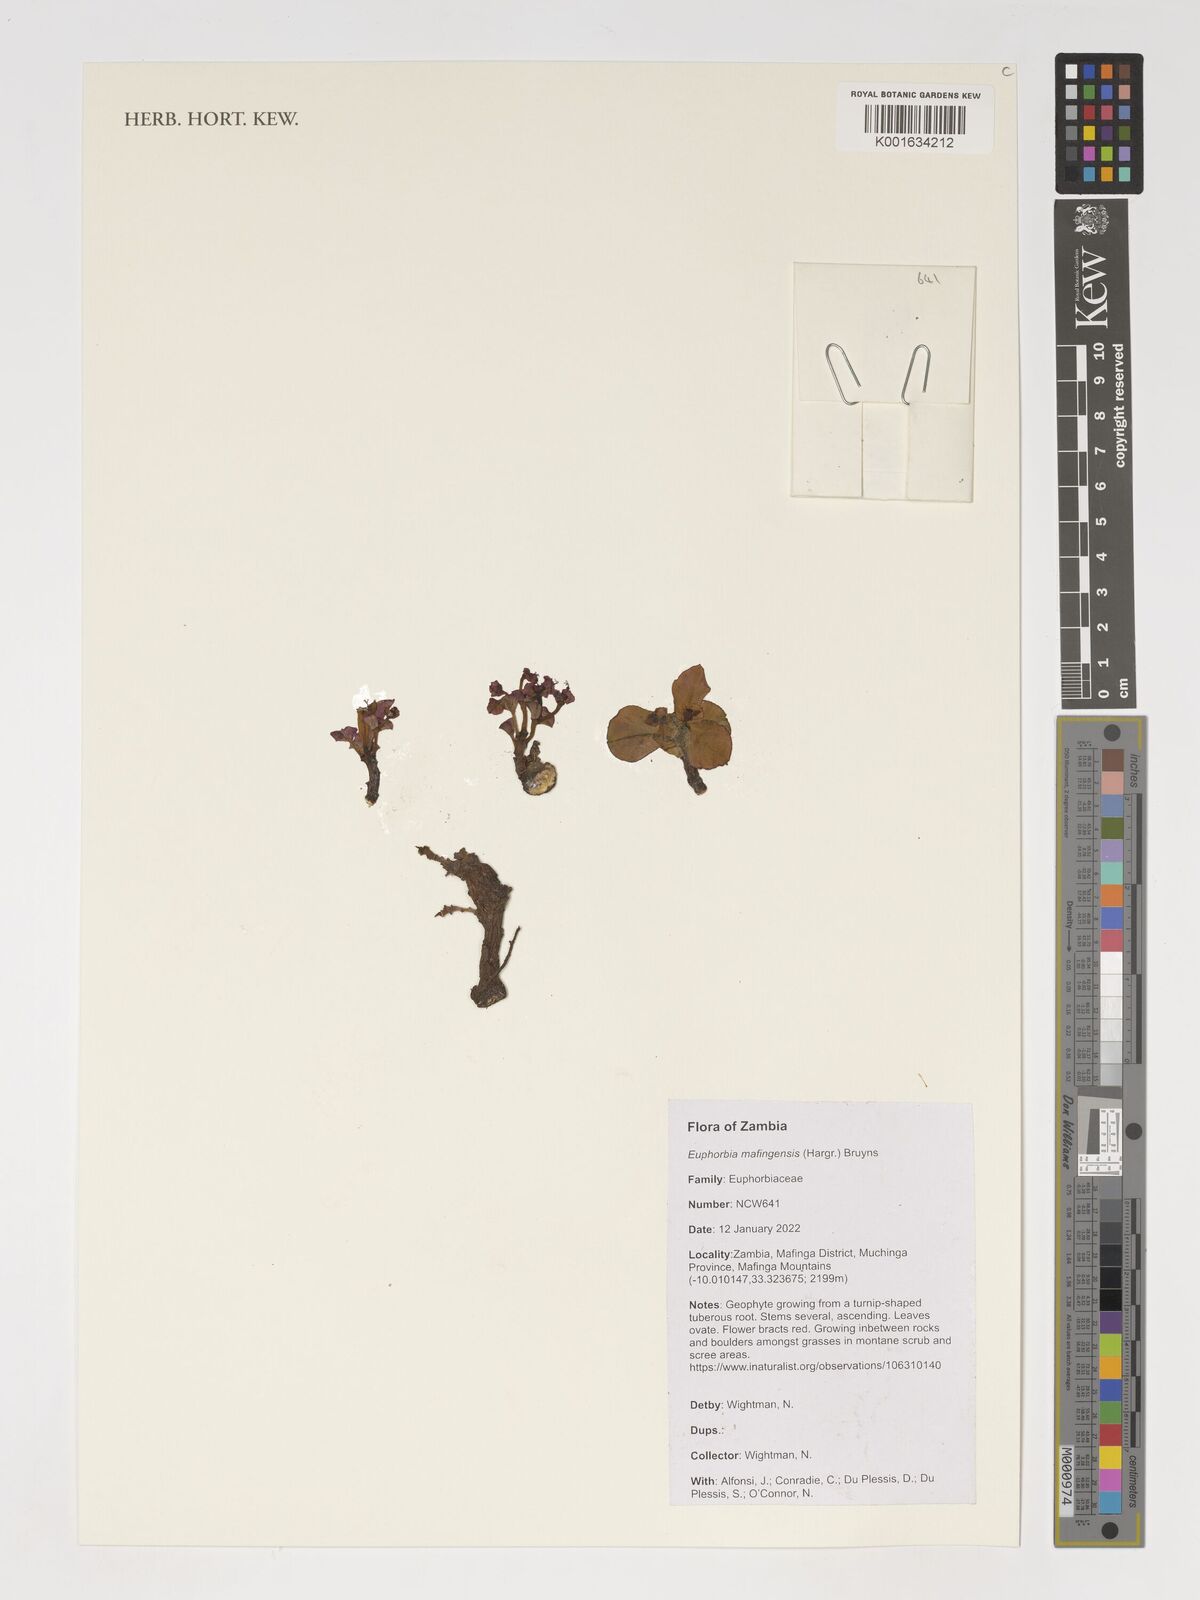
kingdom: Plantae
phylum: Tracheophyta
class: Magnoliopsida
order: Malpighiales
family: Euphorbiaceae
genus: Euphorbia
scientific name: Euphorbia mafingensis
